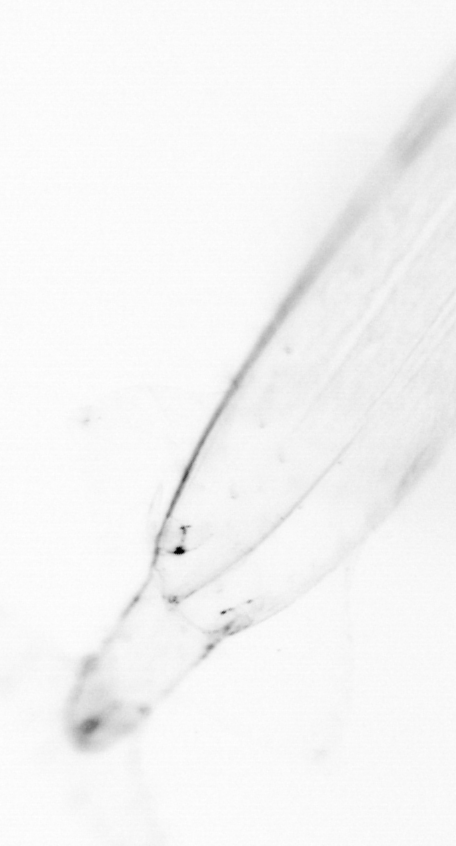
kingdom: Animalia
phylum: Chaetognatha
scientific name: Chaetognatha
